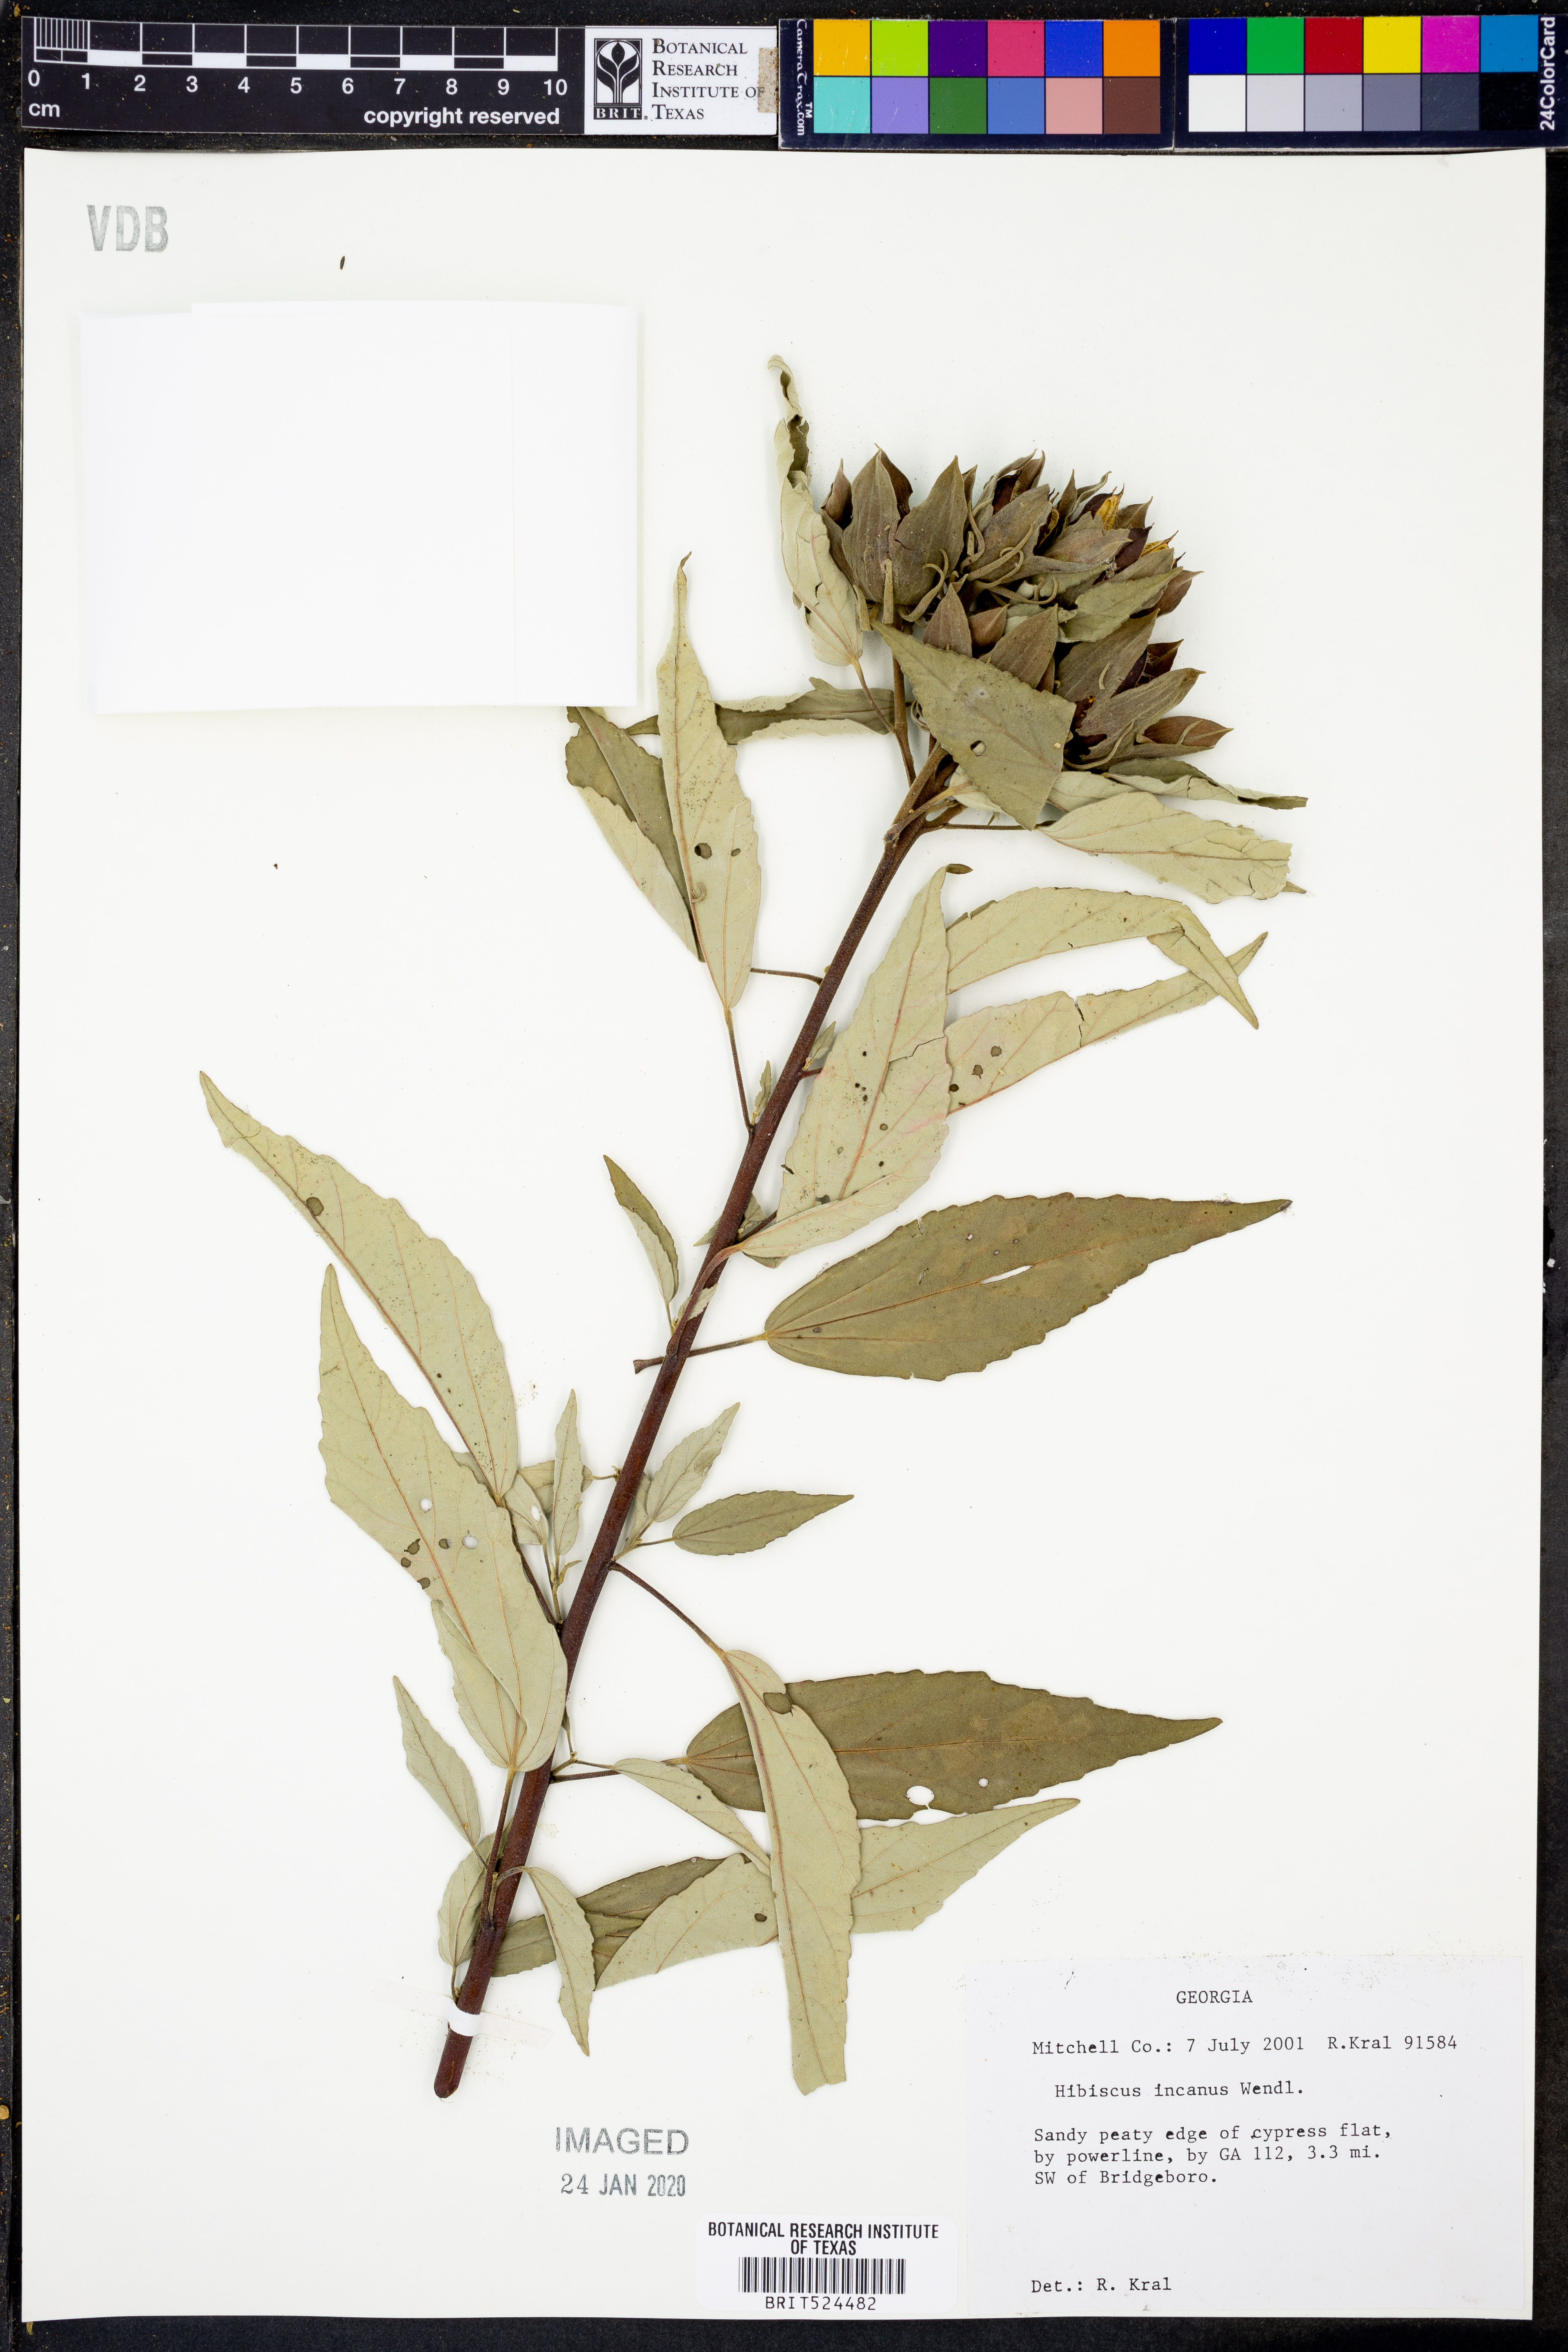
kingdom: Plantae
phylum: Tracheophyta
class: Magnoliopsida
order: Malvales
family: Malvaceae
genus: Hibiscus
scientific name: Hibiscus moscheutos
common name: Common rose-mallow
